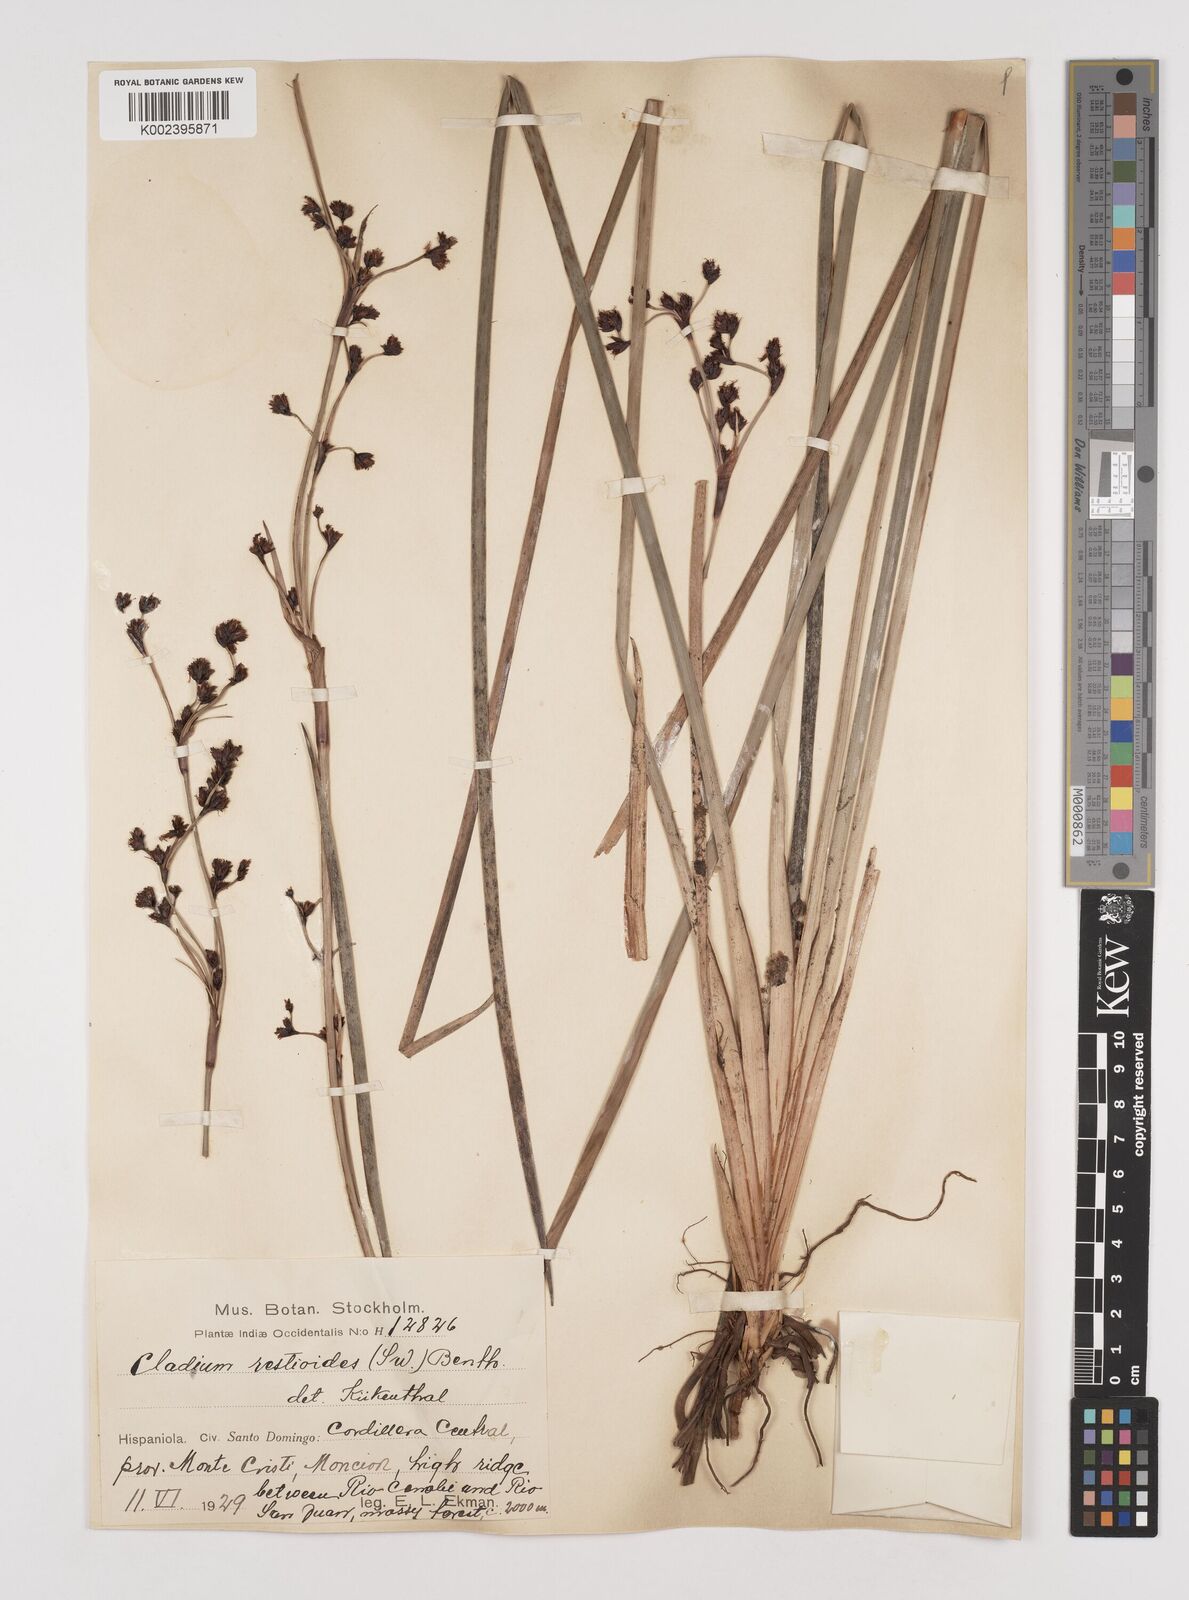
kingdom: Plantae
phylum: Tracheophyta
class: Liliopsida
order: Poales
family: Cyperaceae
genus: Machaerina
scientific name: Machaerina restioides
